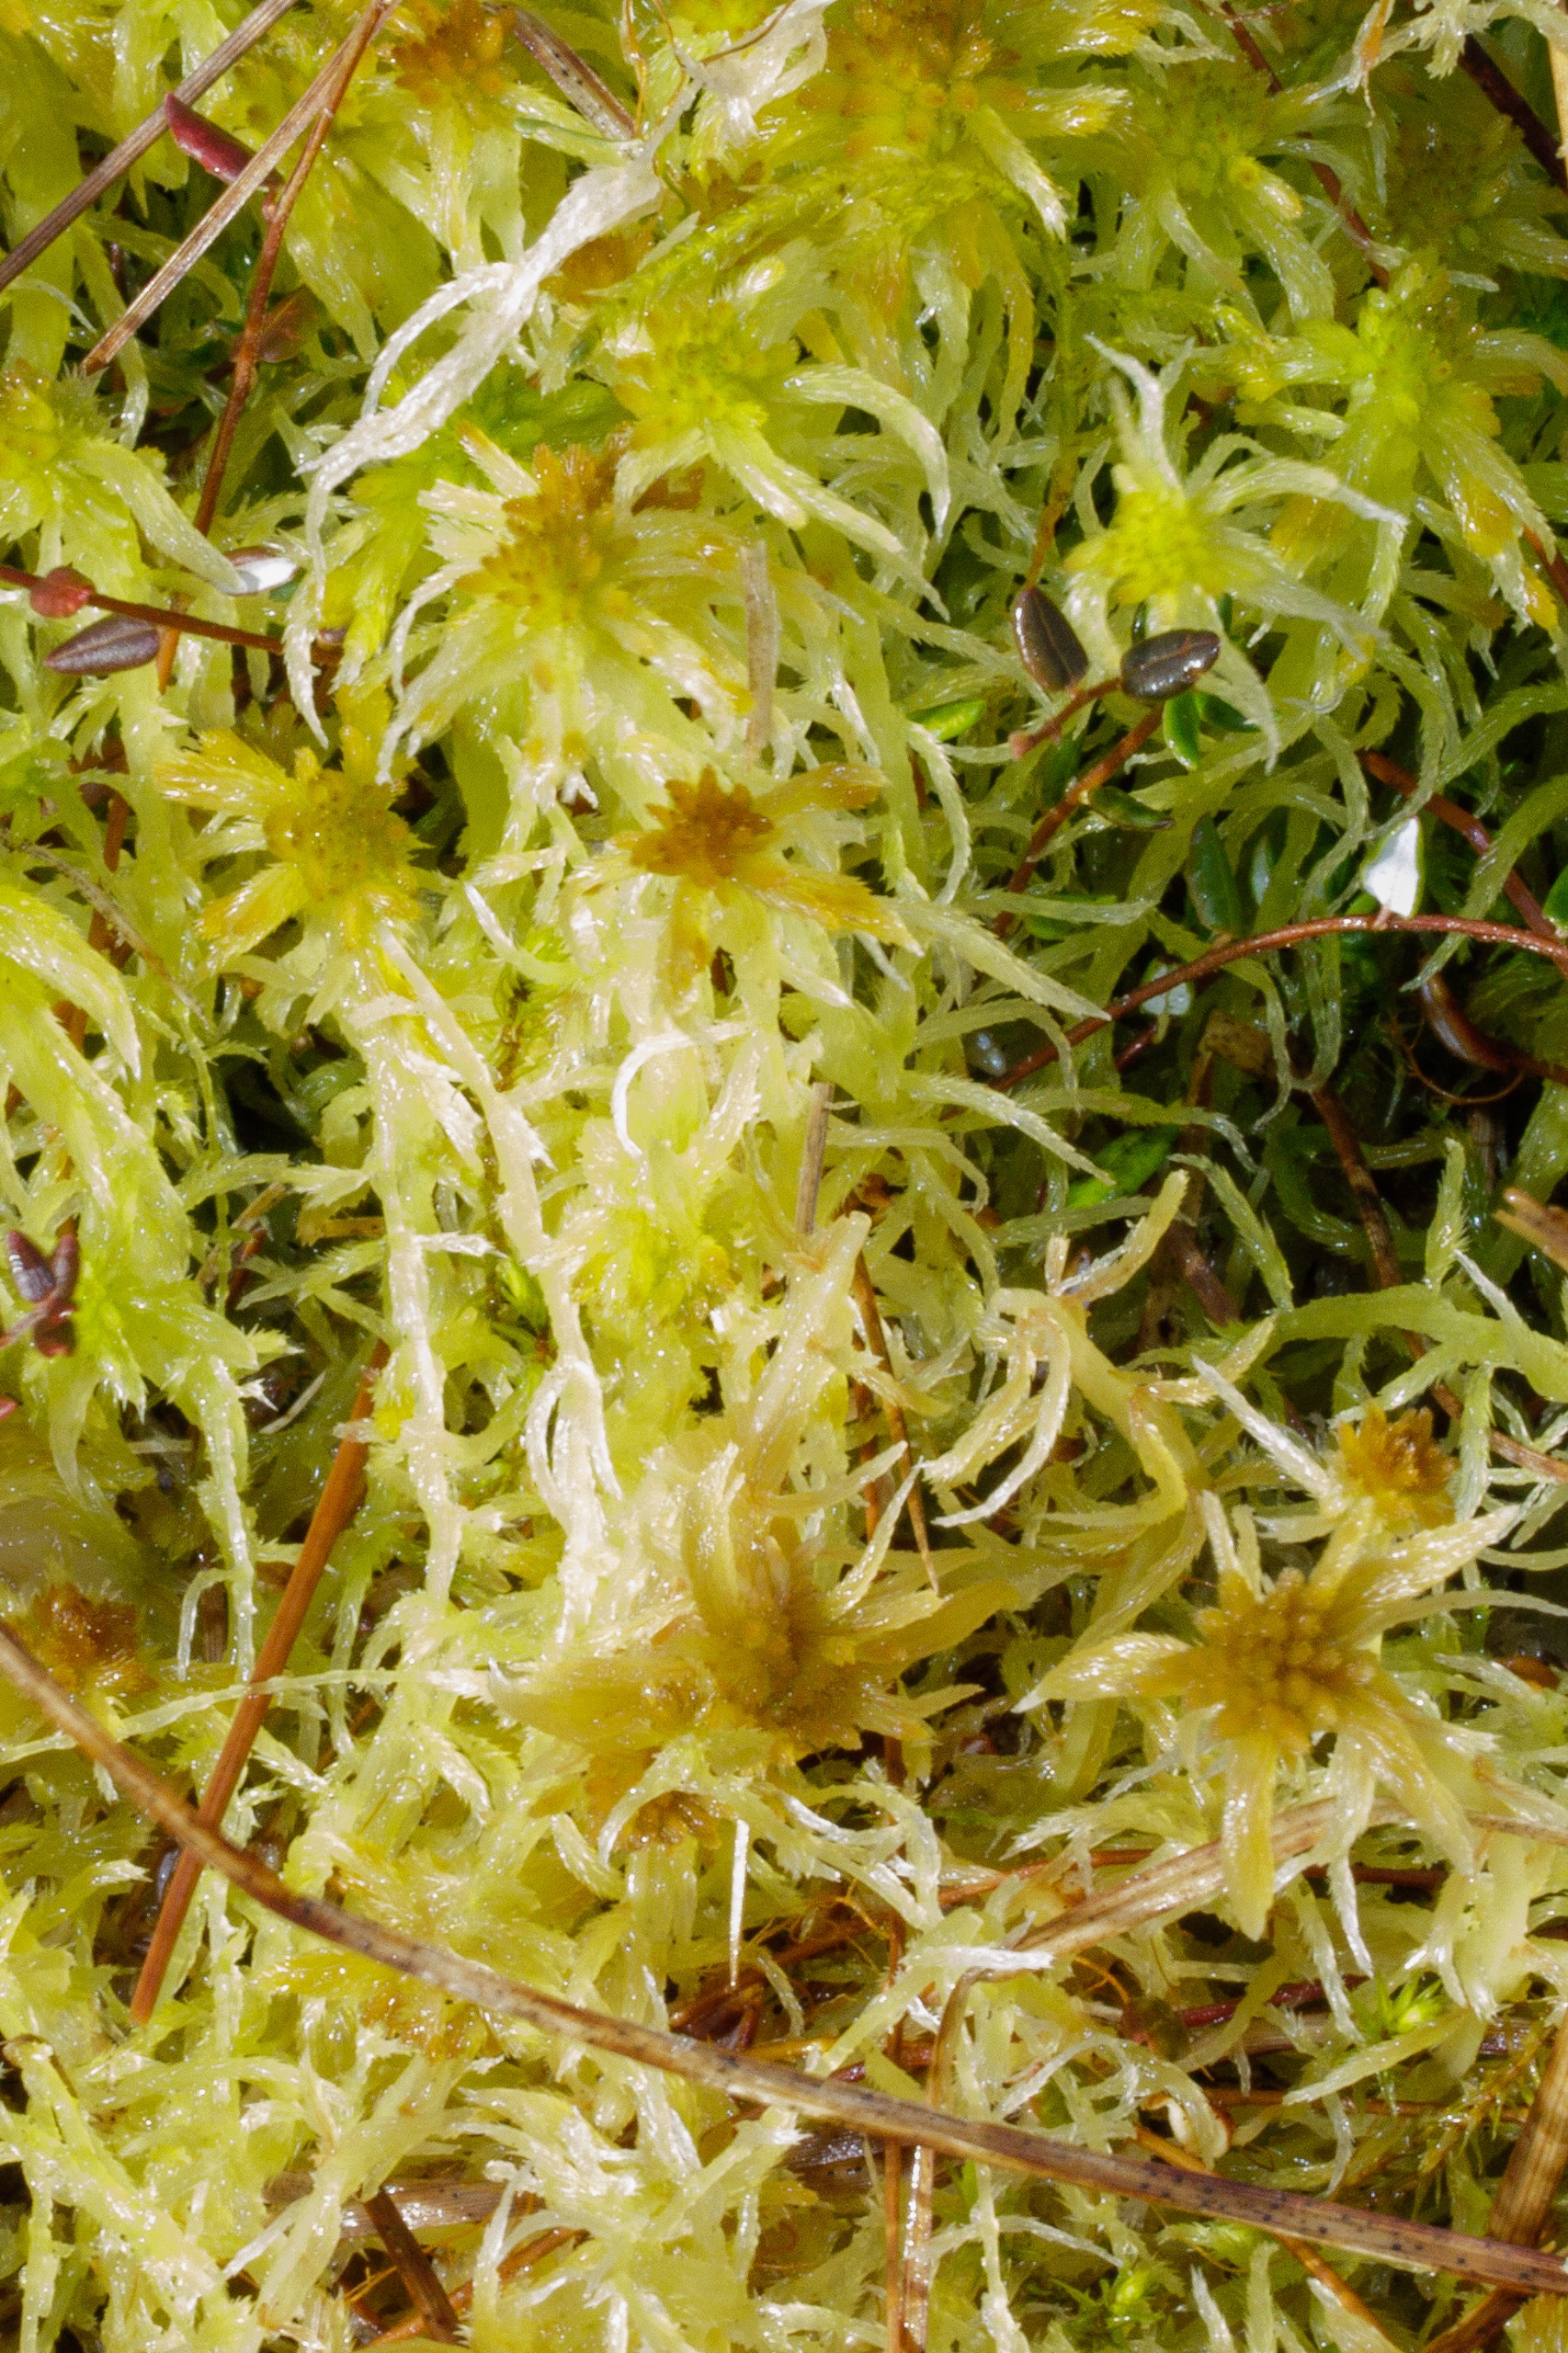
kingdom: Plantae
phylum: Bryophyta
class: Sphagnopsida
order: Sphagnales
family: Sphagnaceae
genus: Sphagnum
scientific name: Sphagnum
